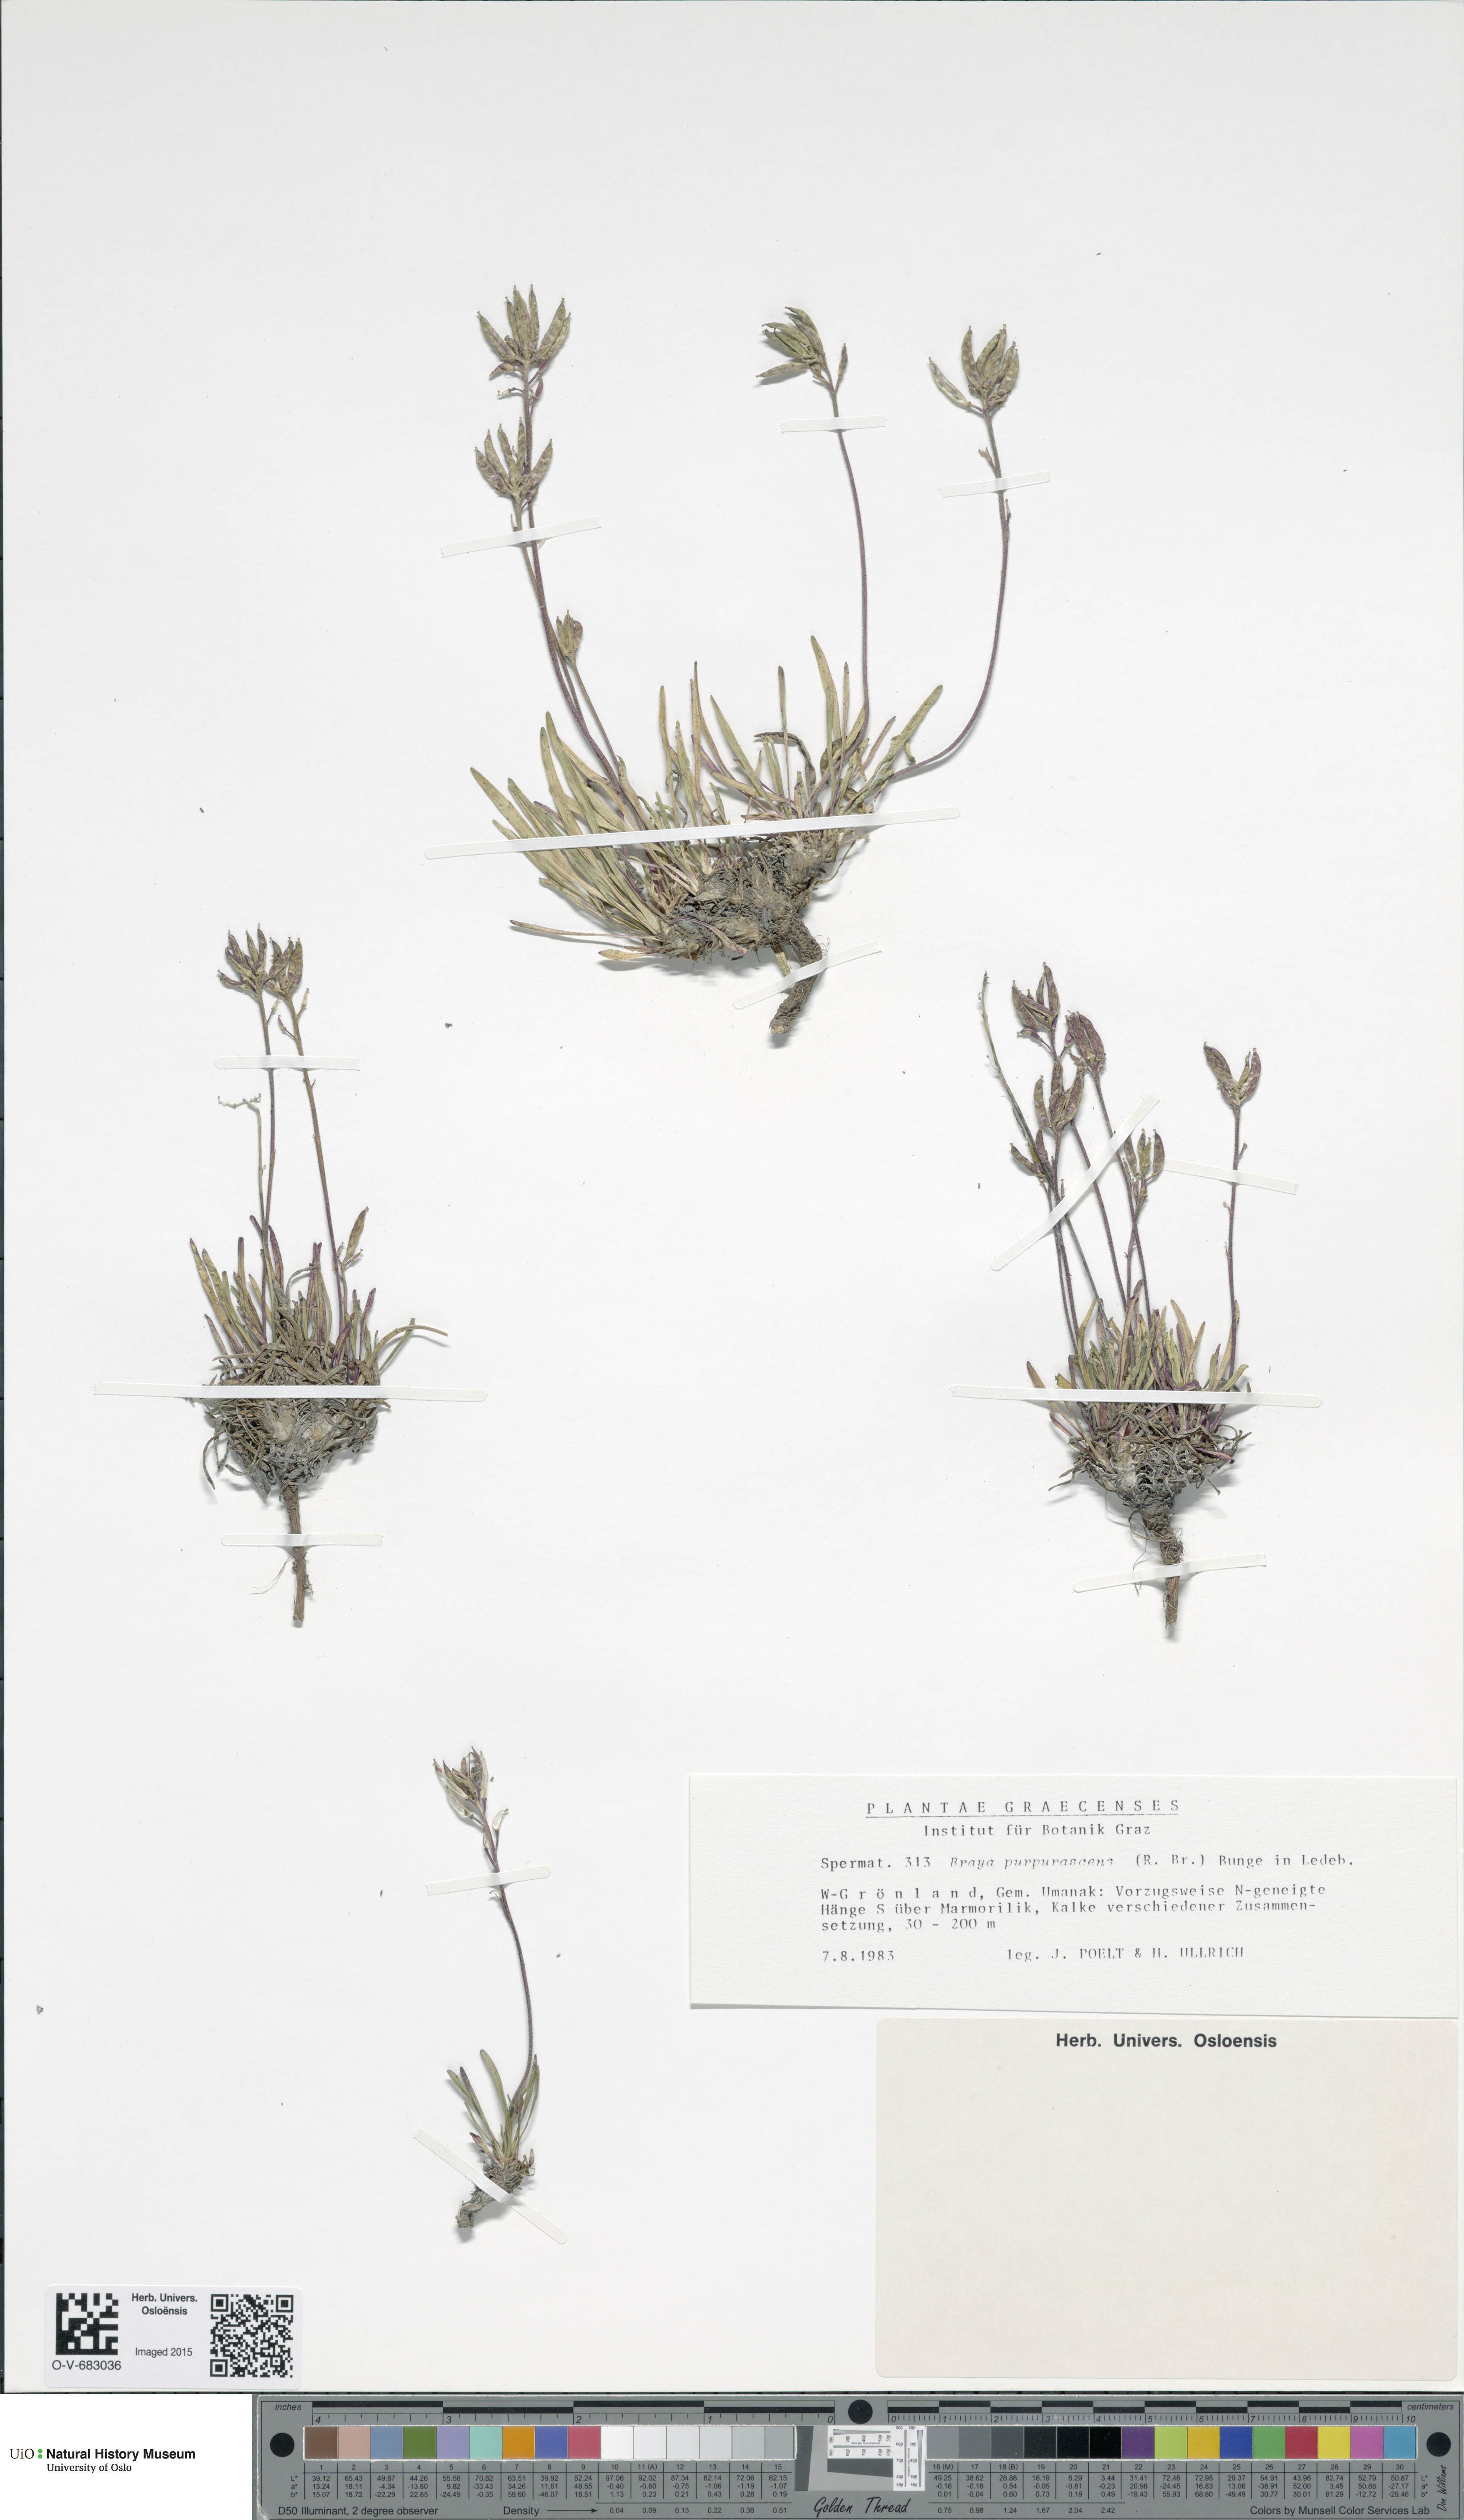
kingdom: Plantae
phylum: Tracheophyta
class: Magnoliopsida
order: Brassicales
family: Brassicaceae
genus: Braya
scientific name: Braya purpurascens
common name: Alpine braya
